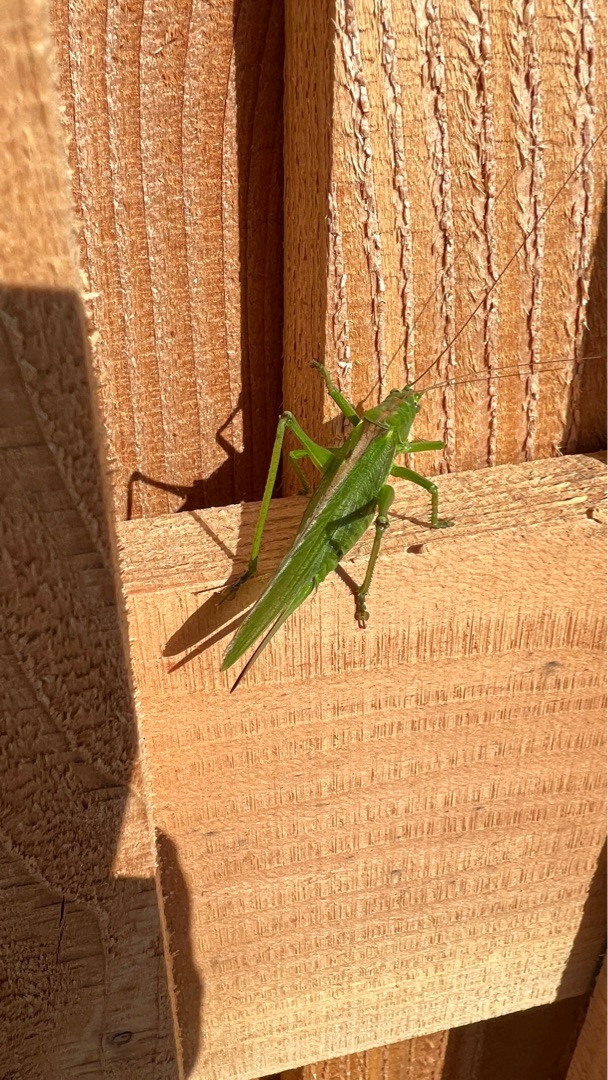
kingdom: Animalia
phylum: Arthropoda
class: Insecta
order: Orthoptera
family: Tettigoniidae
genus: Tettigonia
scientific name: Tettigonia viridissima
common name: Stor grøn løvgræshoppe
